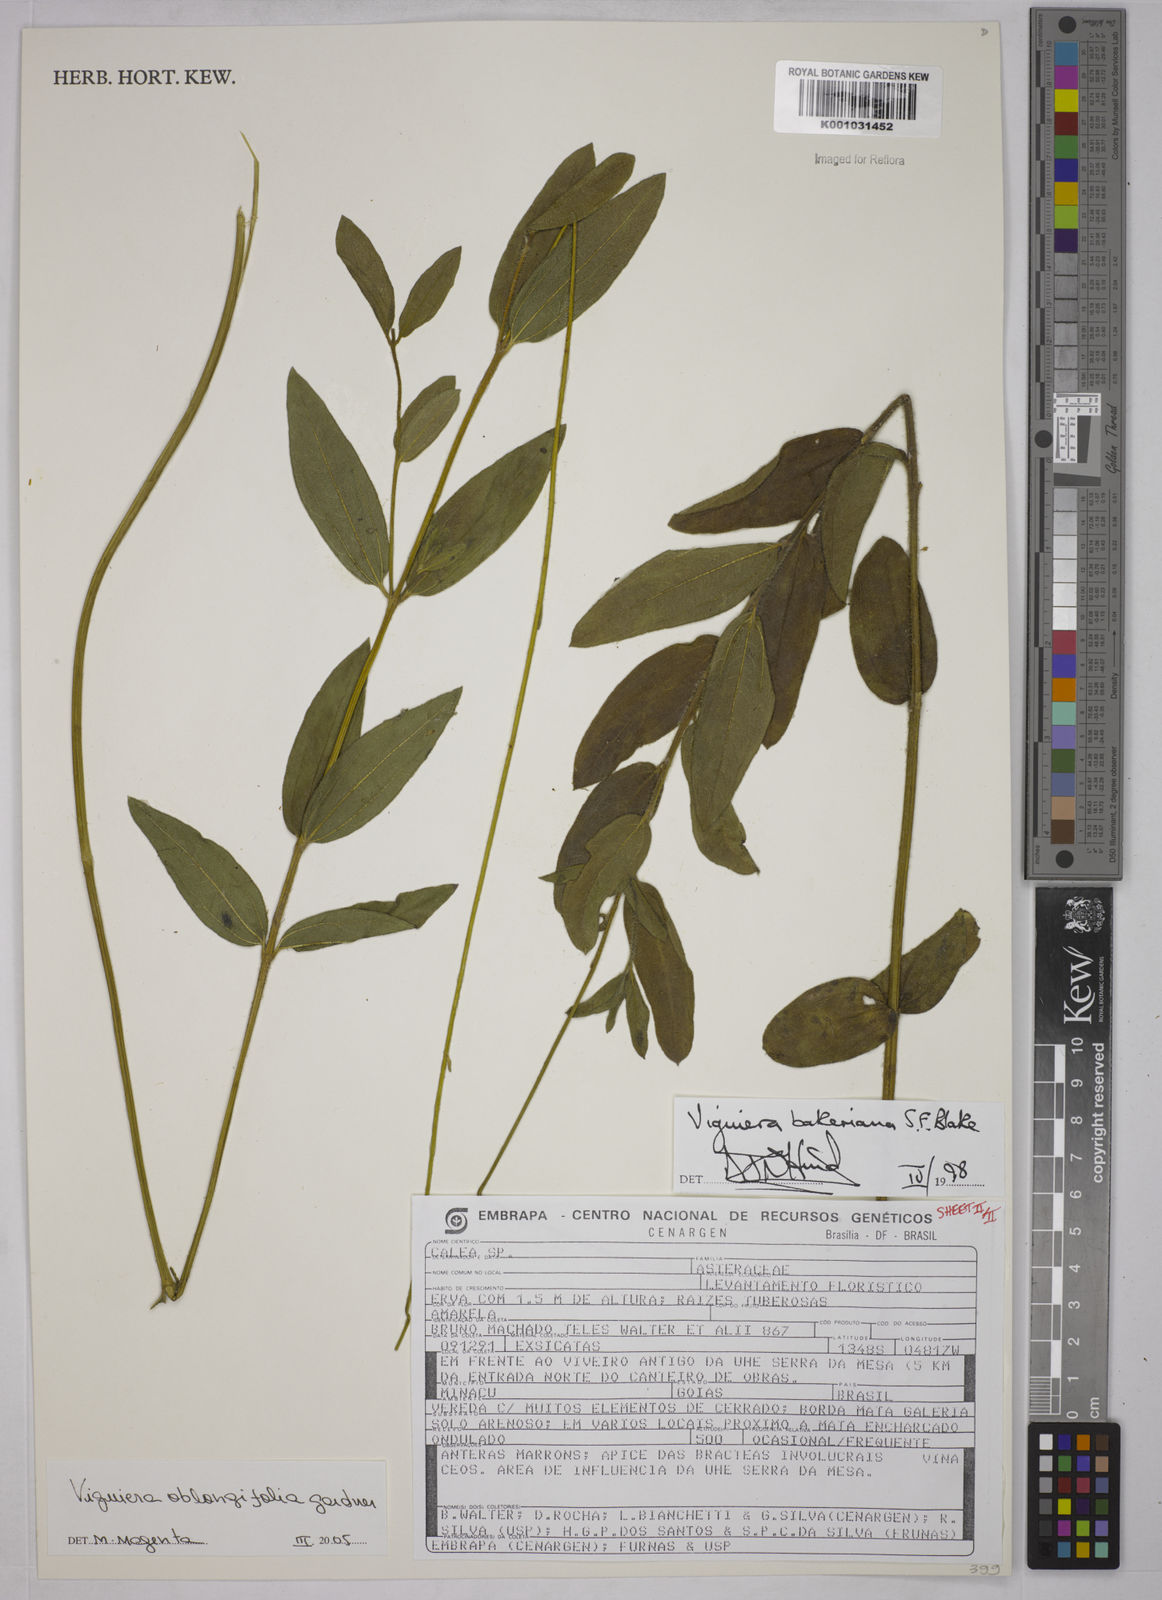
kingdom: Plantae
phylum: Tracheophyta
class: Magnoliopsida
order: Asterales
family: Asteraceae
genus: Aldama
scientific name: Aldama oblongifolia
